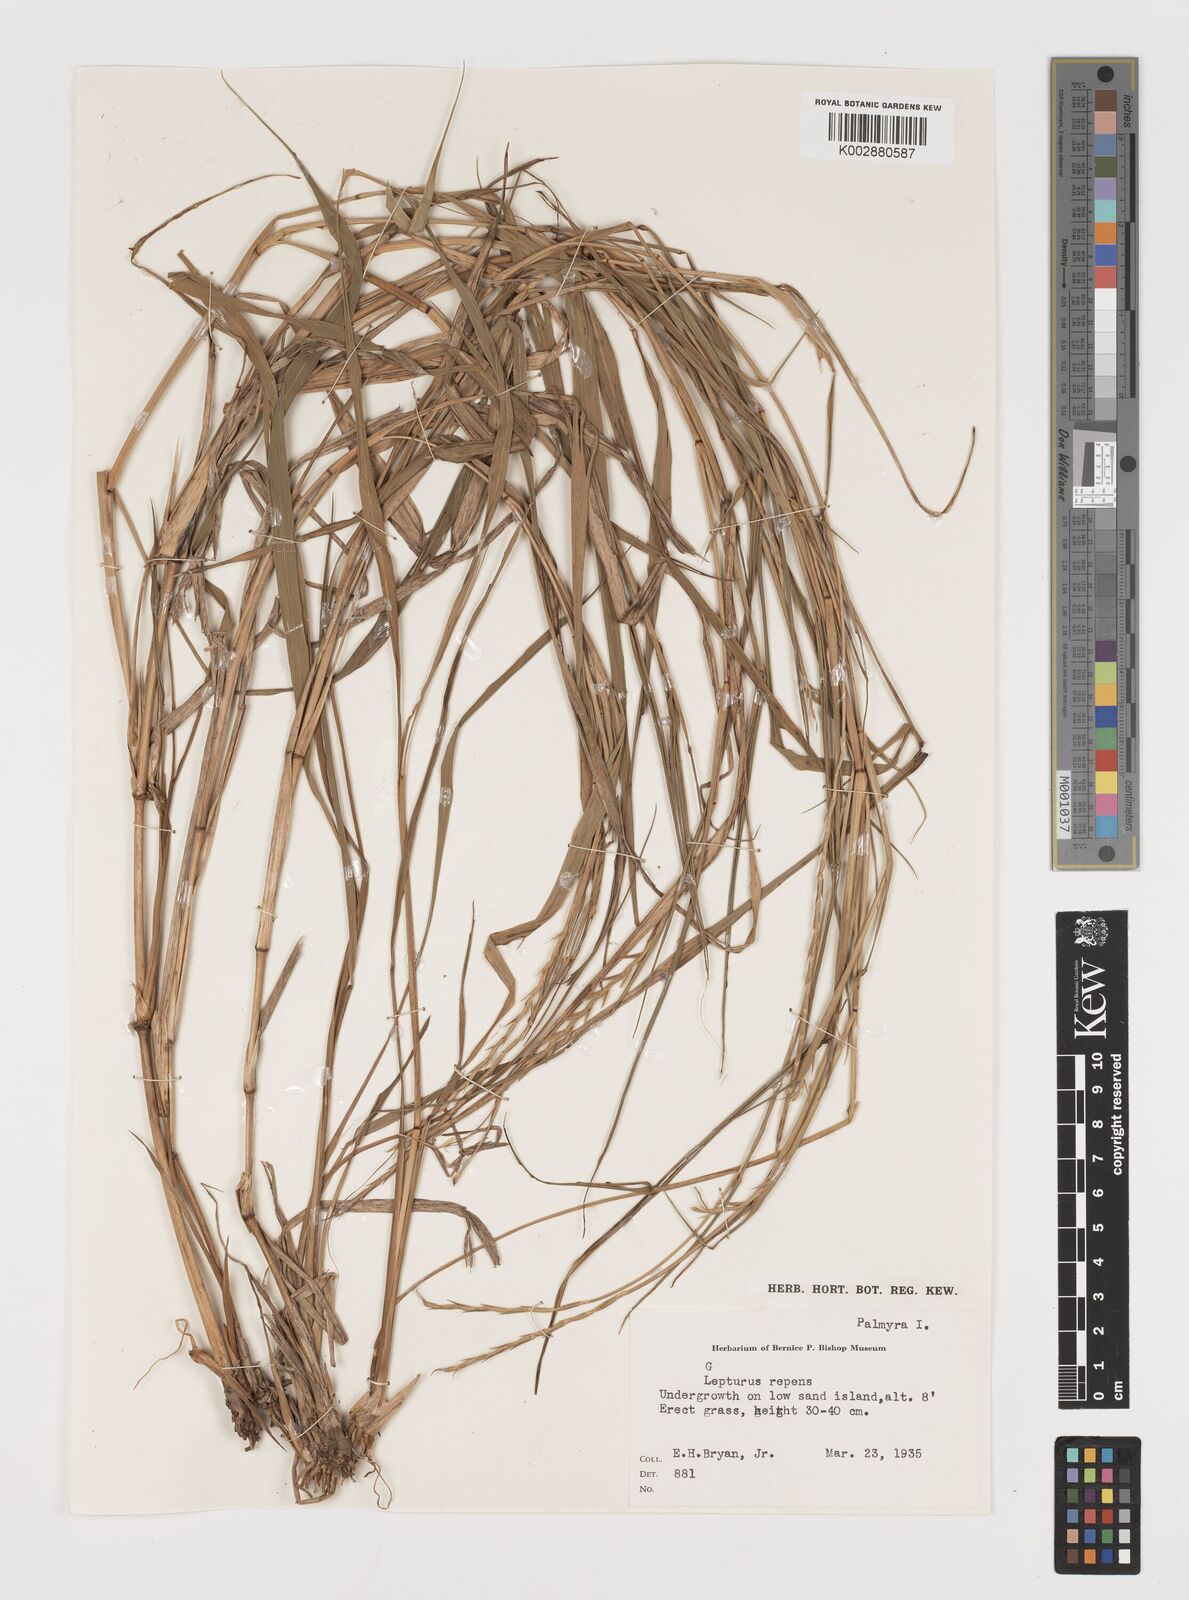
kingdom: Plantae
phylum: Tracheophyta
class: Liliopsida
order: Poales
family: Poaceae
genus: Lepturus
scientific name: Lepturus repens
